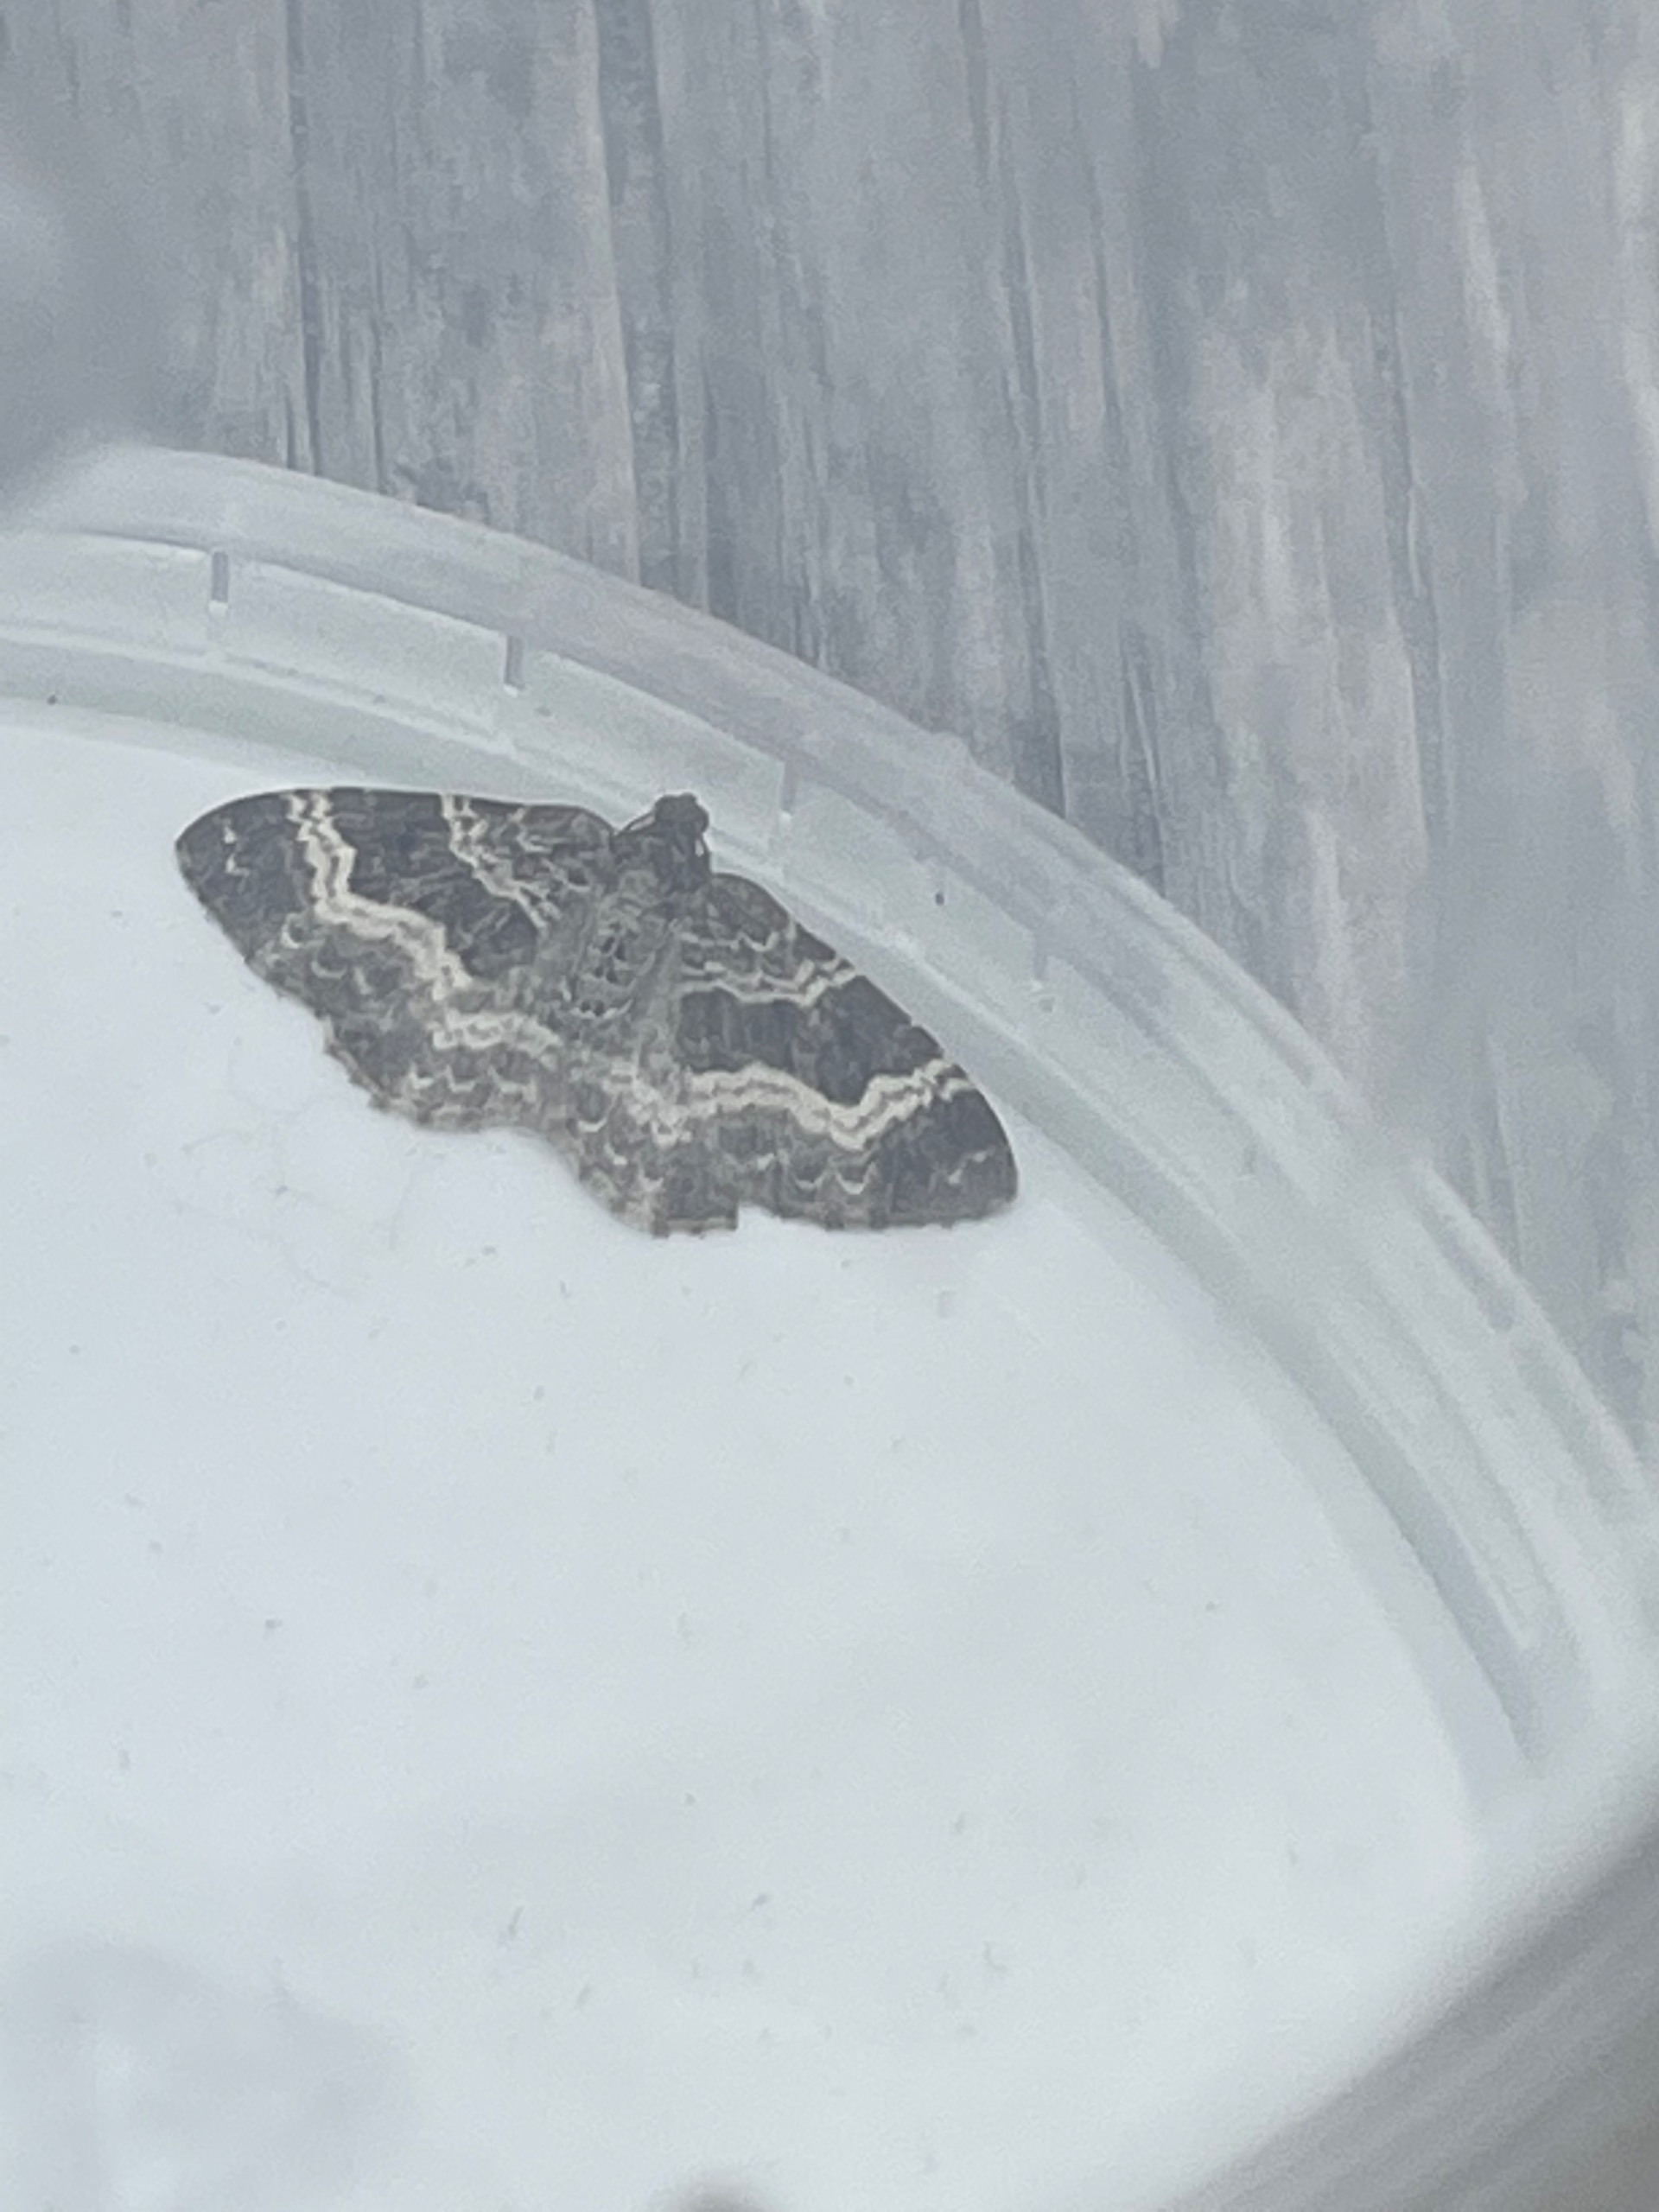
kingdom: Animalia
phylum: Arthropoda
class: Insecta
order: Lepidoptera
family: Geometridae
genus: Epirrhoe
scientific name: Epirrhoe alternata
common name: Almindelig bladmåler
